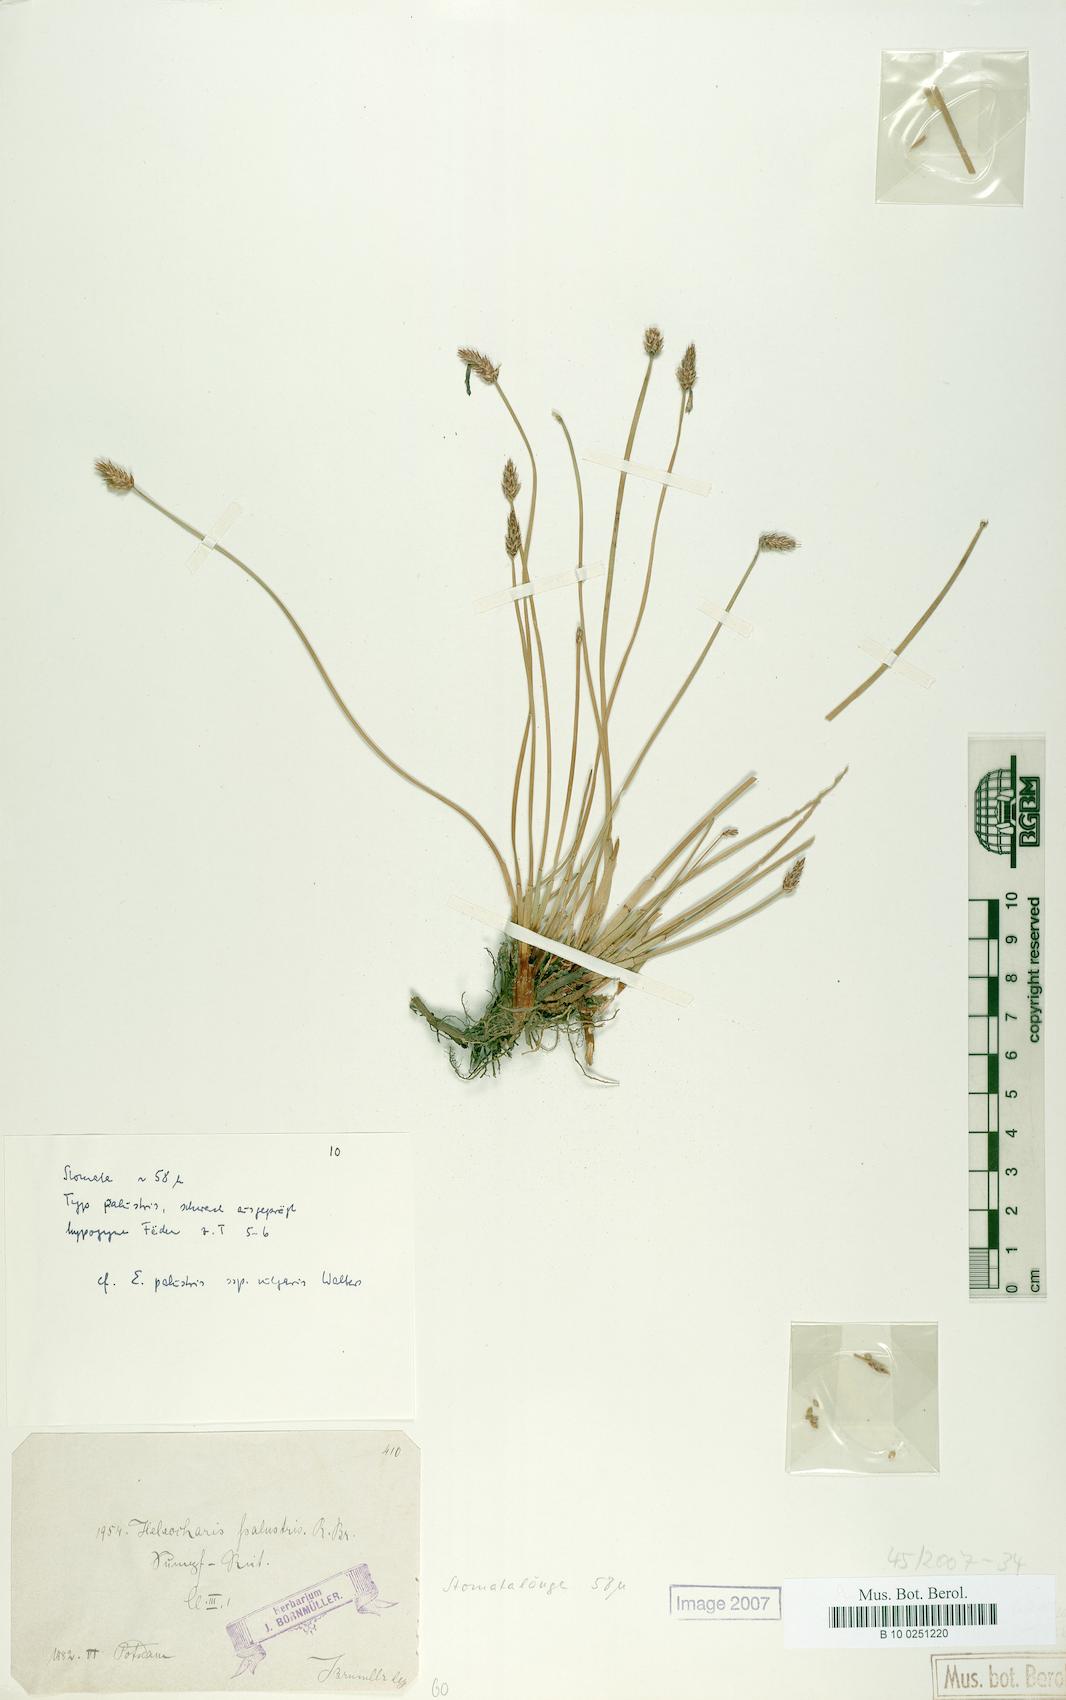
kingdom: Plantae
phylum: Tracheophyta
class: Liliopsida
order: Poales
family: Cyperaceae
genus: Eleocharis
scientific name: Eleocharis palustris
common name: Common spike-rush
